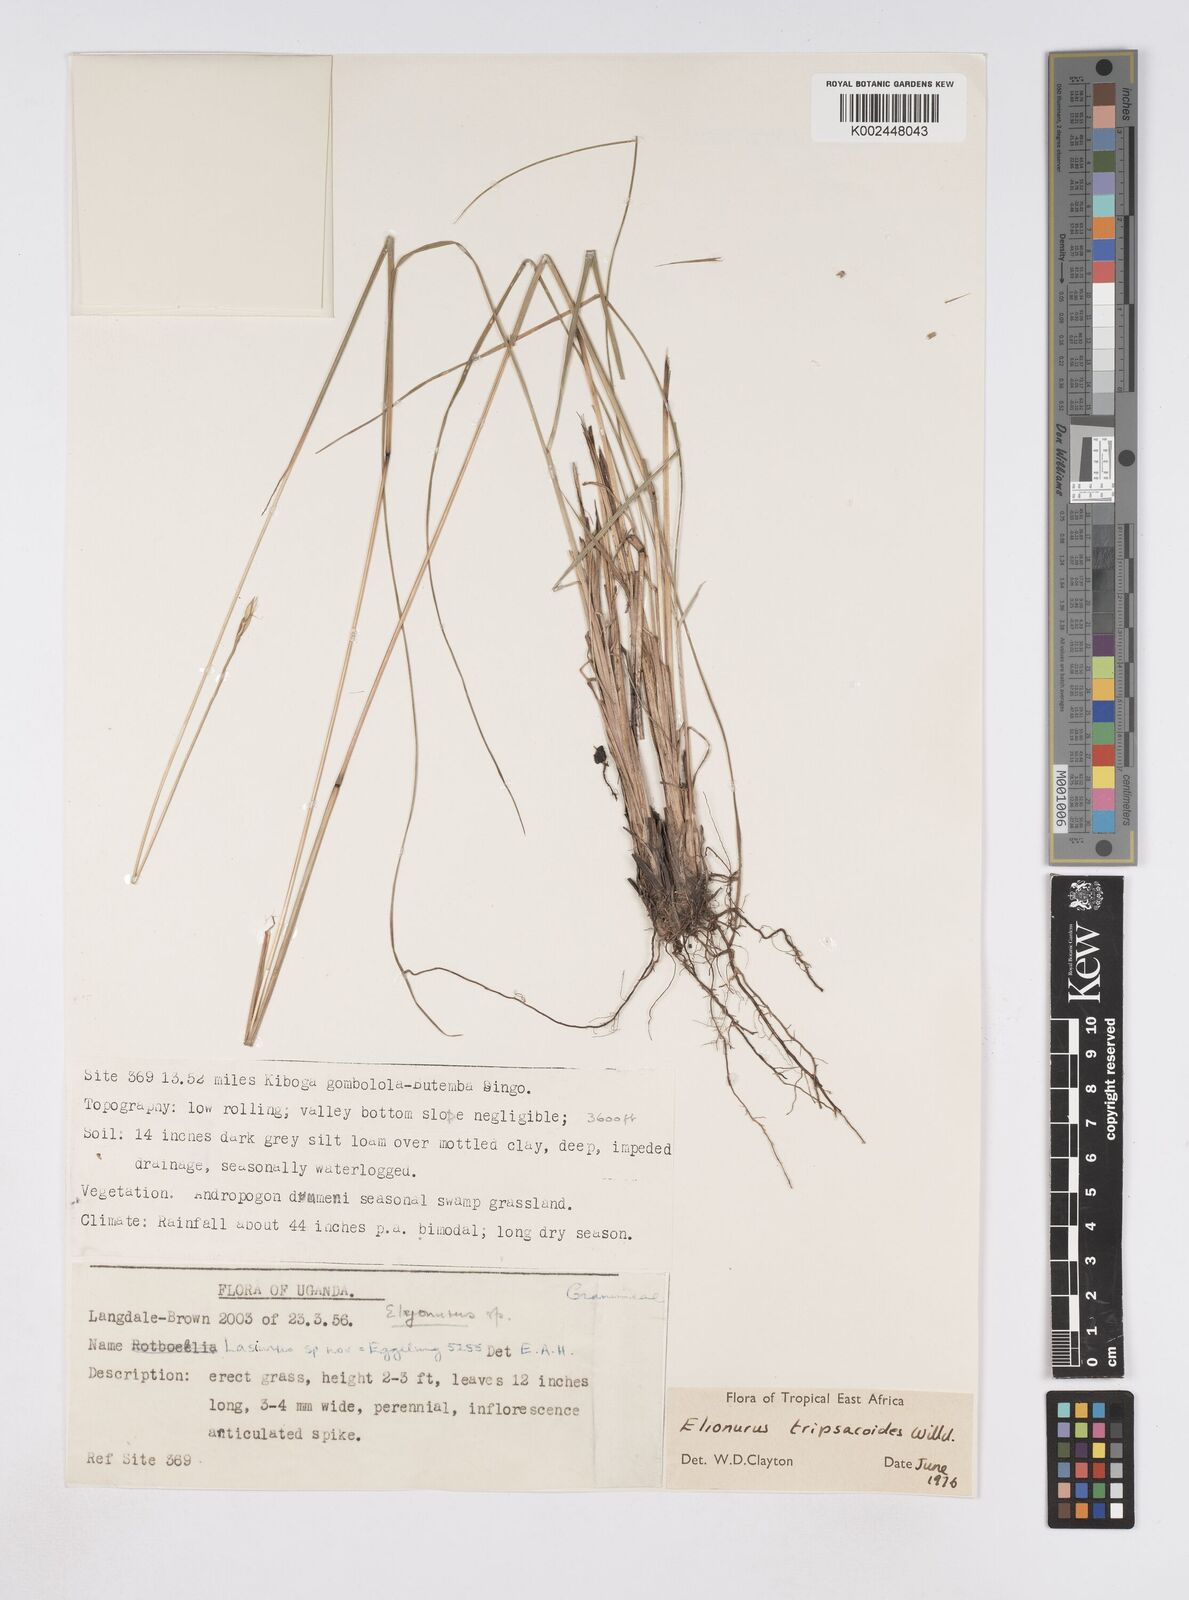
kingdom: Plantae
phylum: Tracheophyta
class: Liliopsida
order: Poales
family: Poaceae
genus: Elionurus
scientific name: Elionurus tripsacoides
